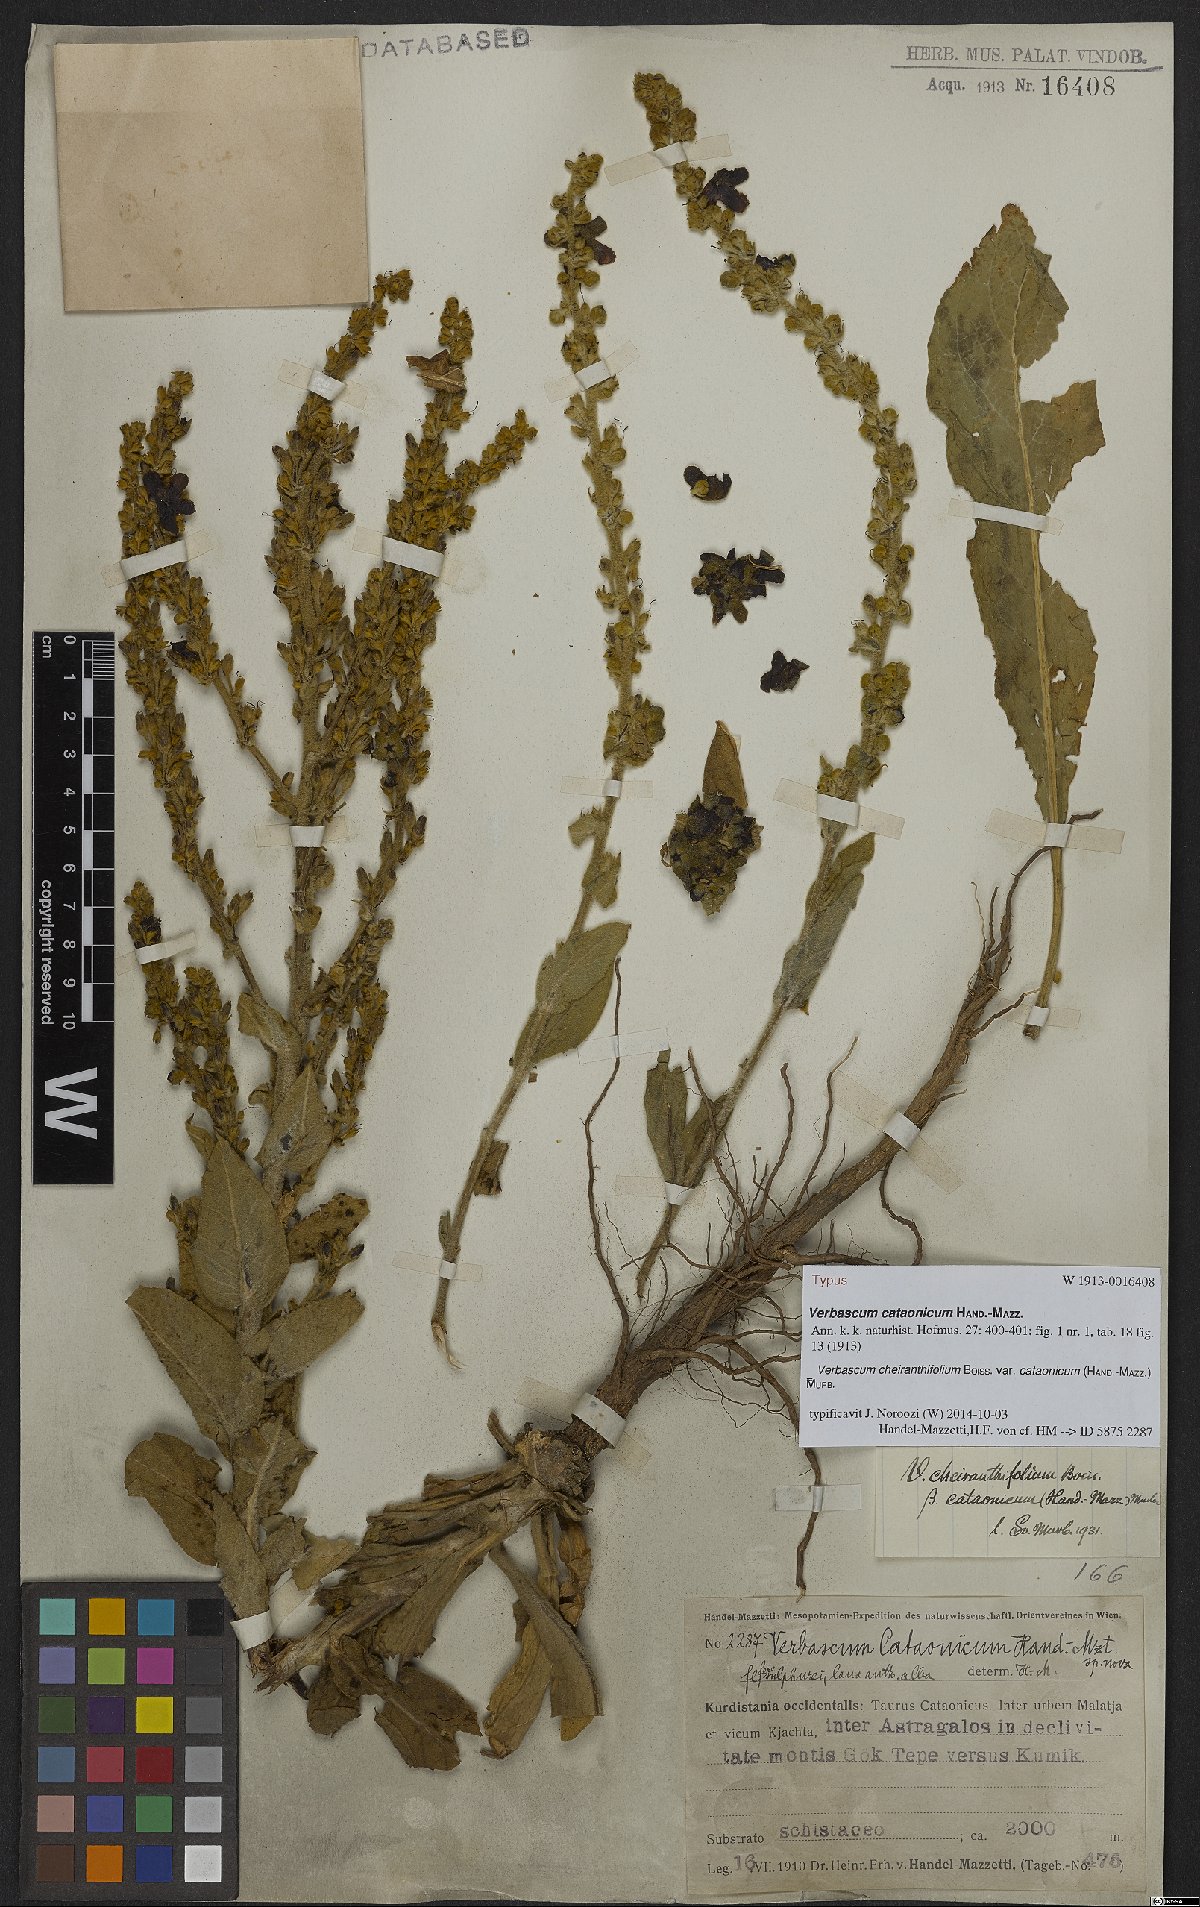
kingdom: Plantae
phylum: Tracheophyta
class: Magnoliopsida
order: Lamiales
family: Scrophulariaceae
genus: Verbascum
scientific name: Verbascum cheiranthifollum
